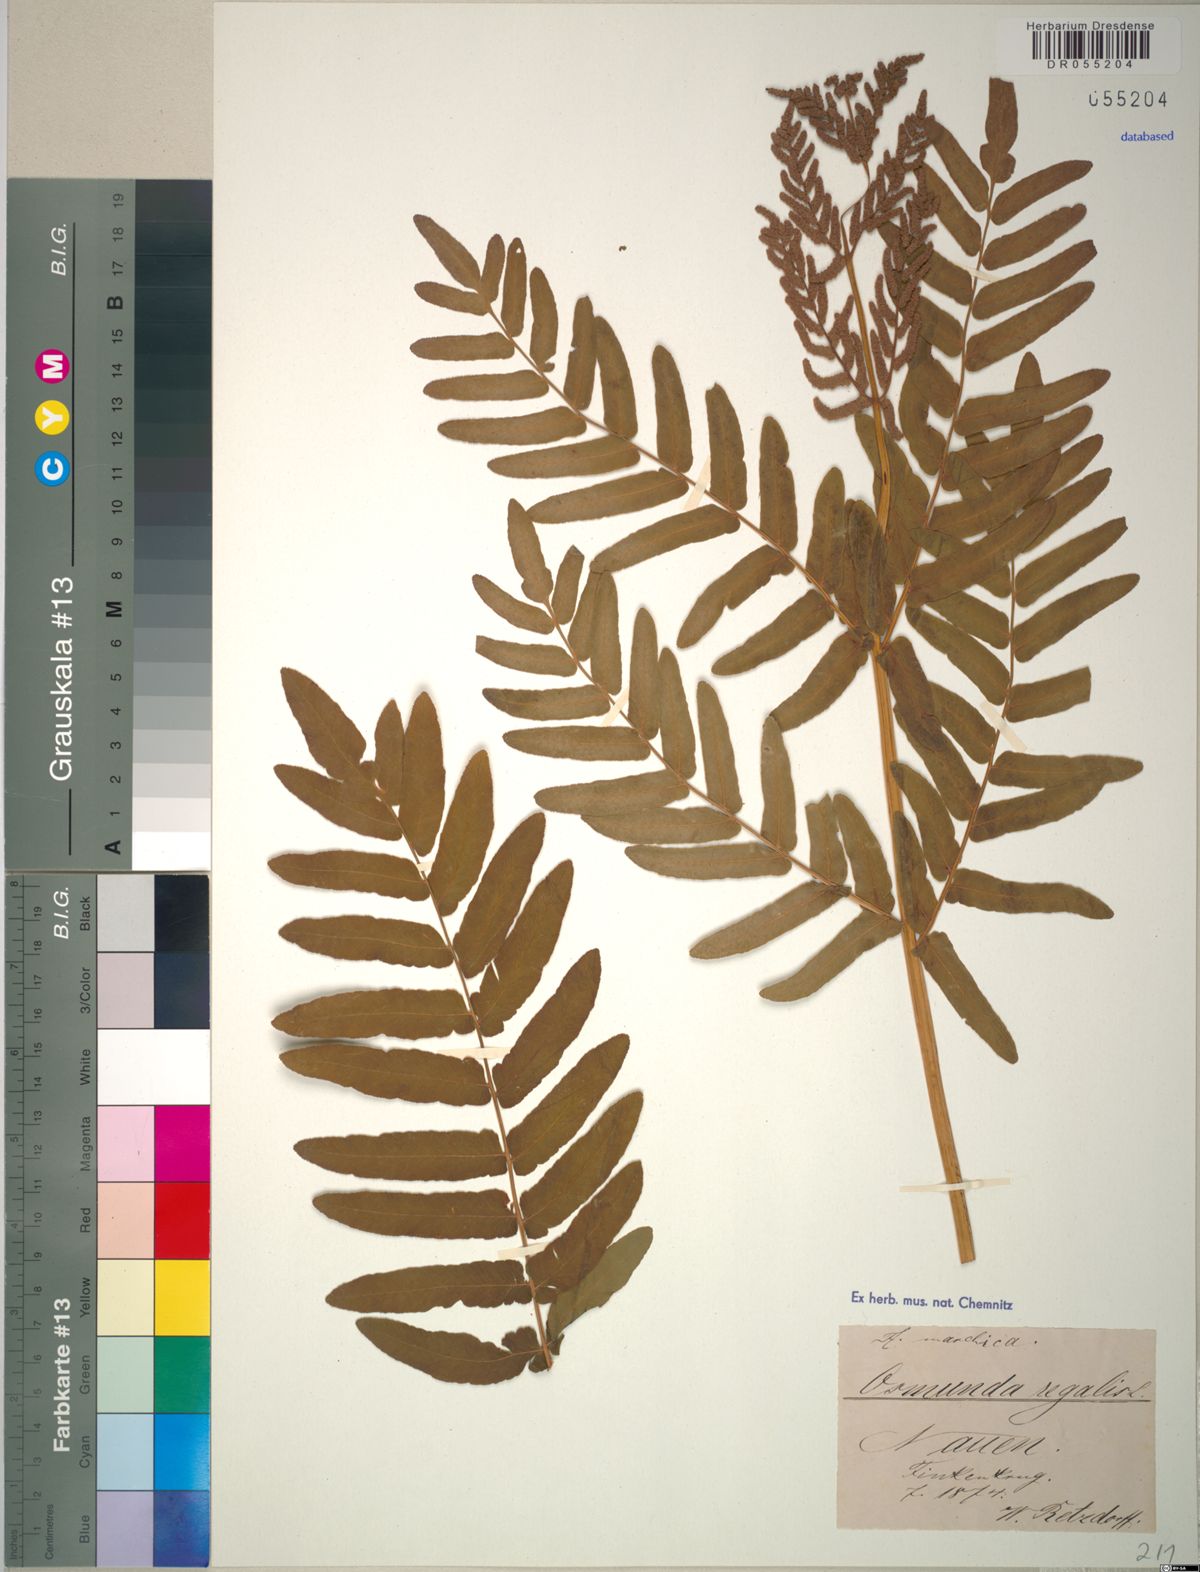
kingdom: Plantae
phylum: Tracheophyta
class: Polypodiopsida
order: Osmundales
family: Osmundaceae
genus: Osmunda
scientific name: Osmunda regalis
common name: Royal fern
